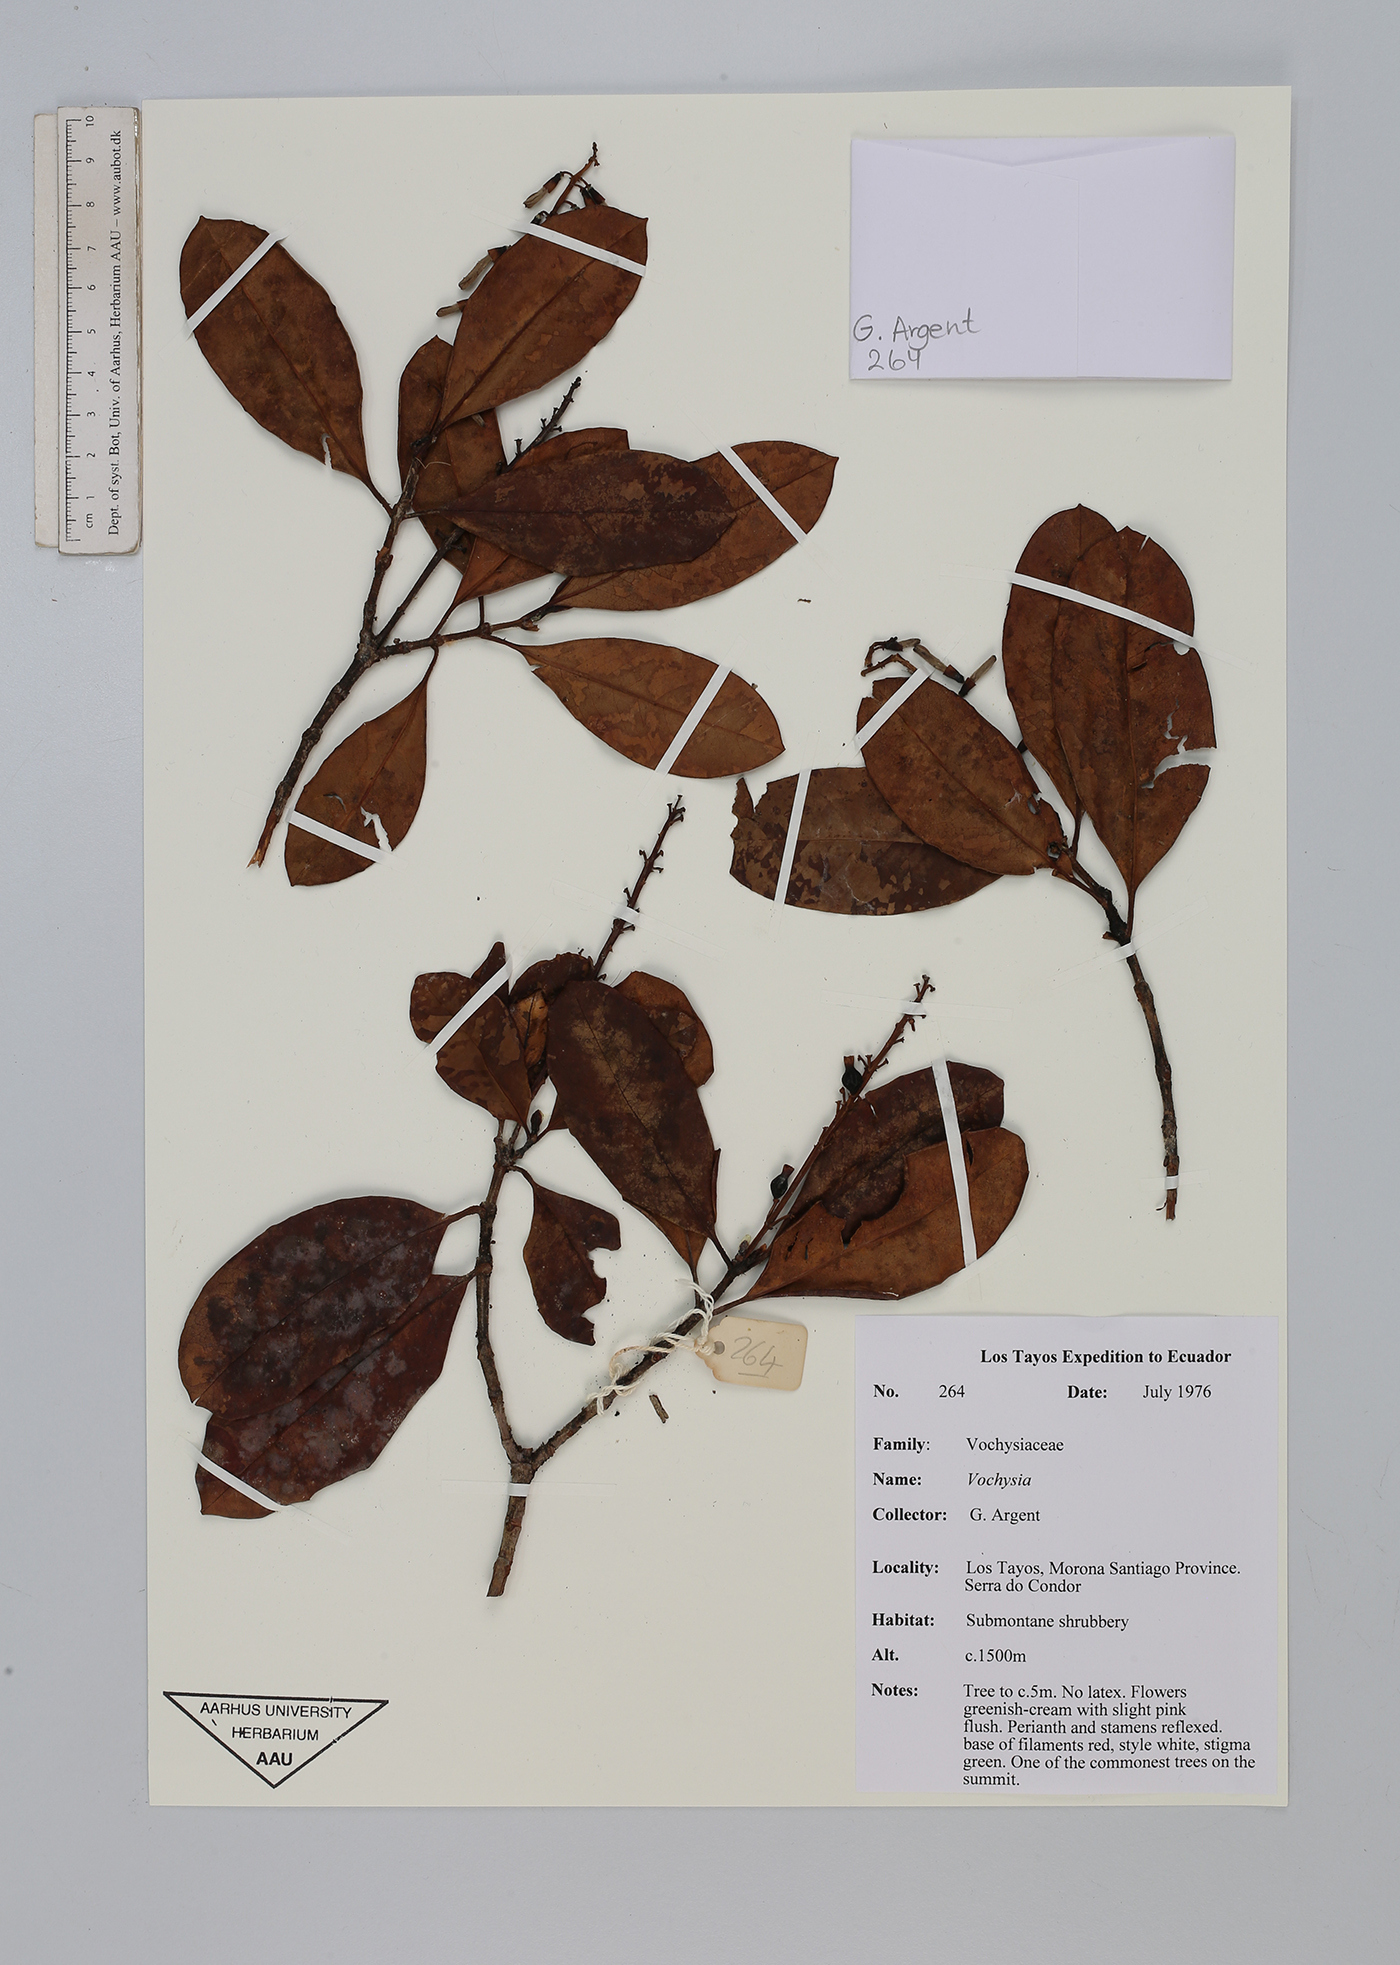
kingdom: Plantae
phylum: Tracheophyta
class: Magnoliopsida
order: Myrtales
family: Vochysiaceae
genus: Vochysia
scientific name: Vochysia
